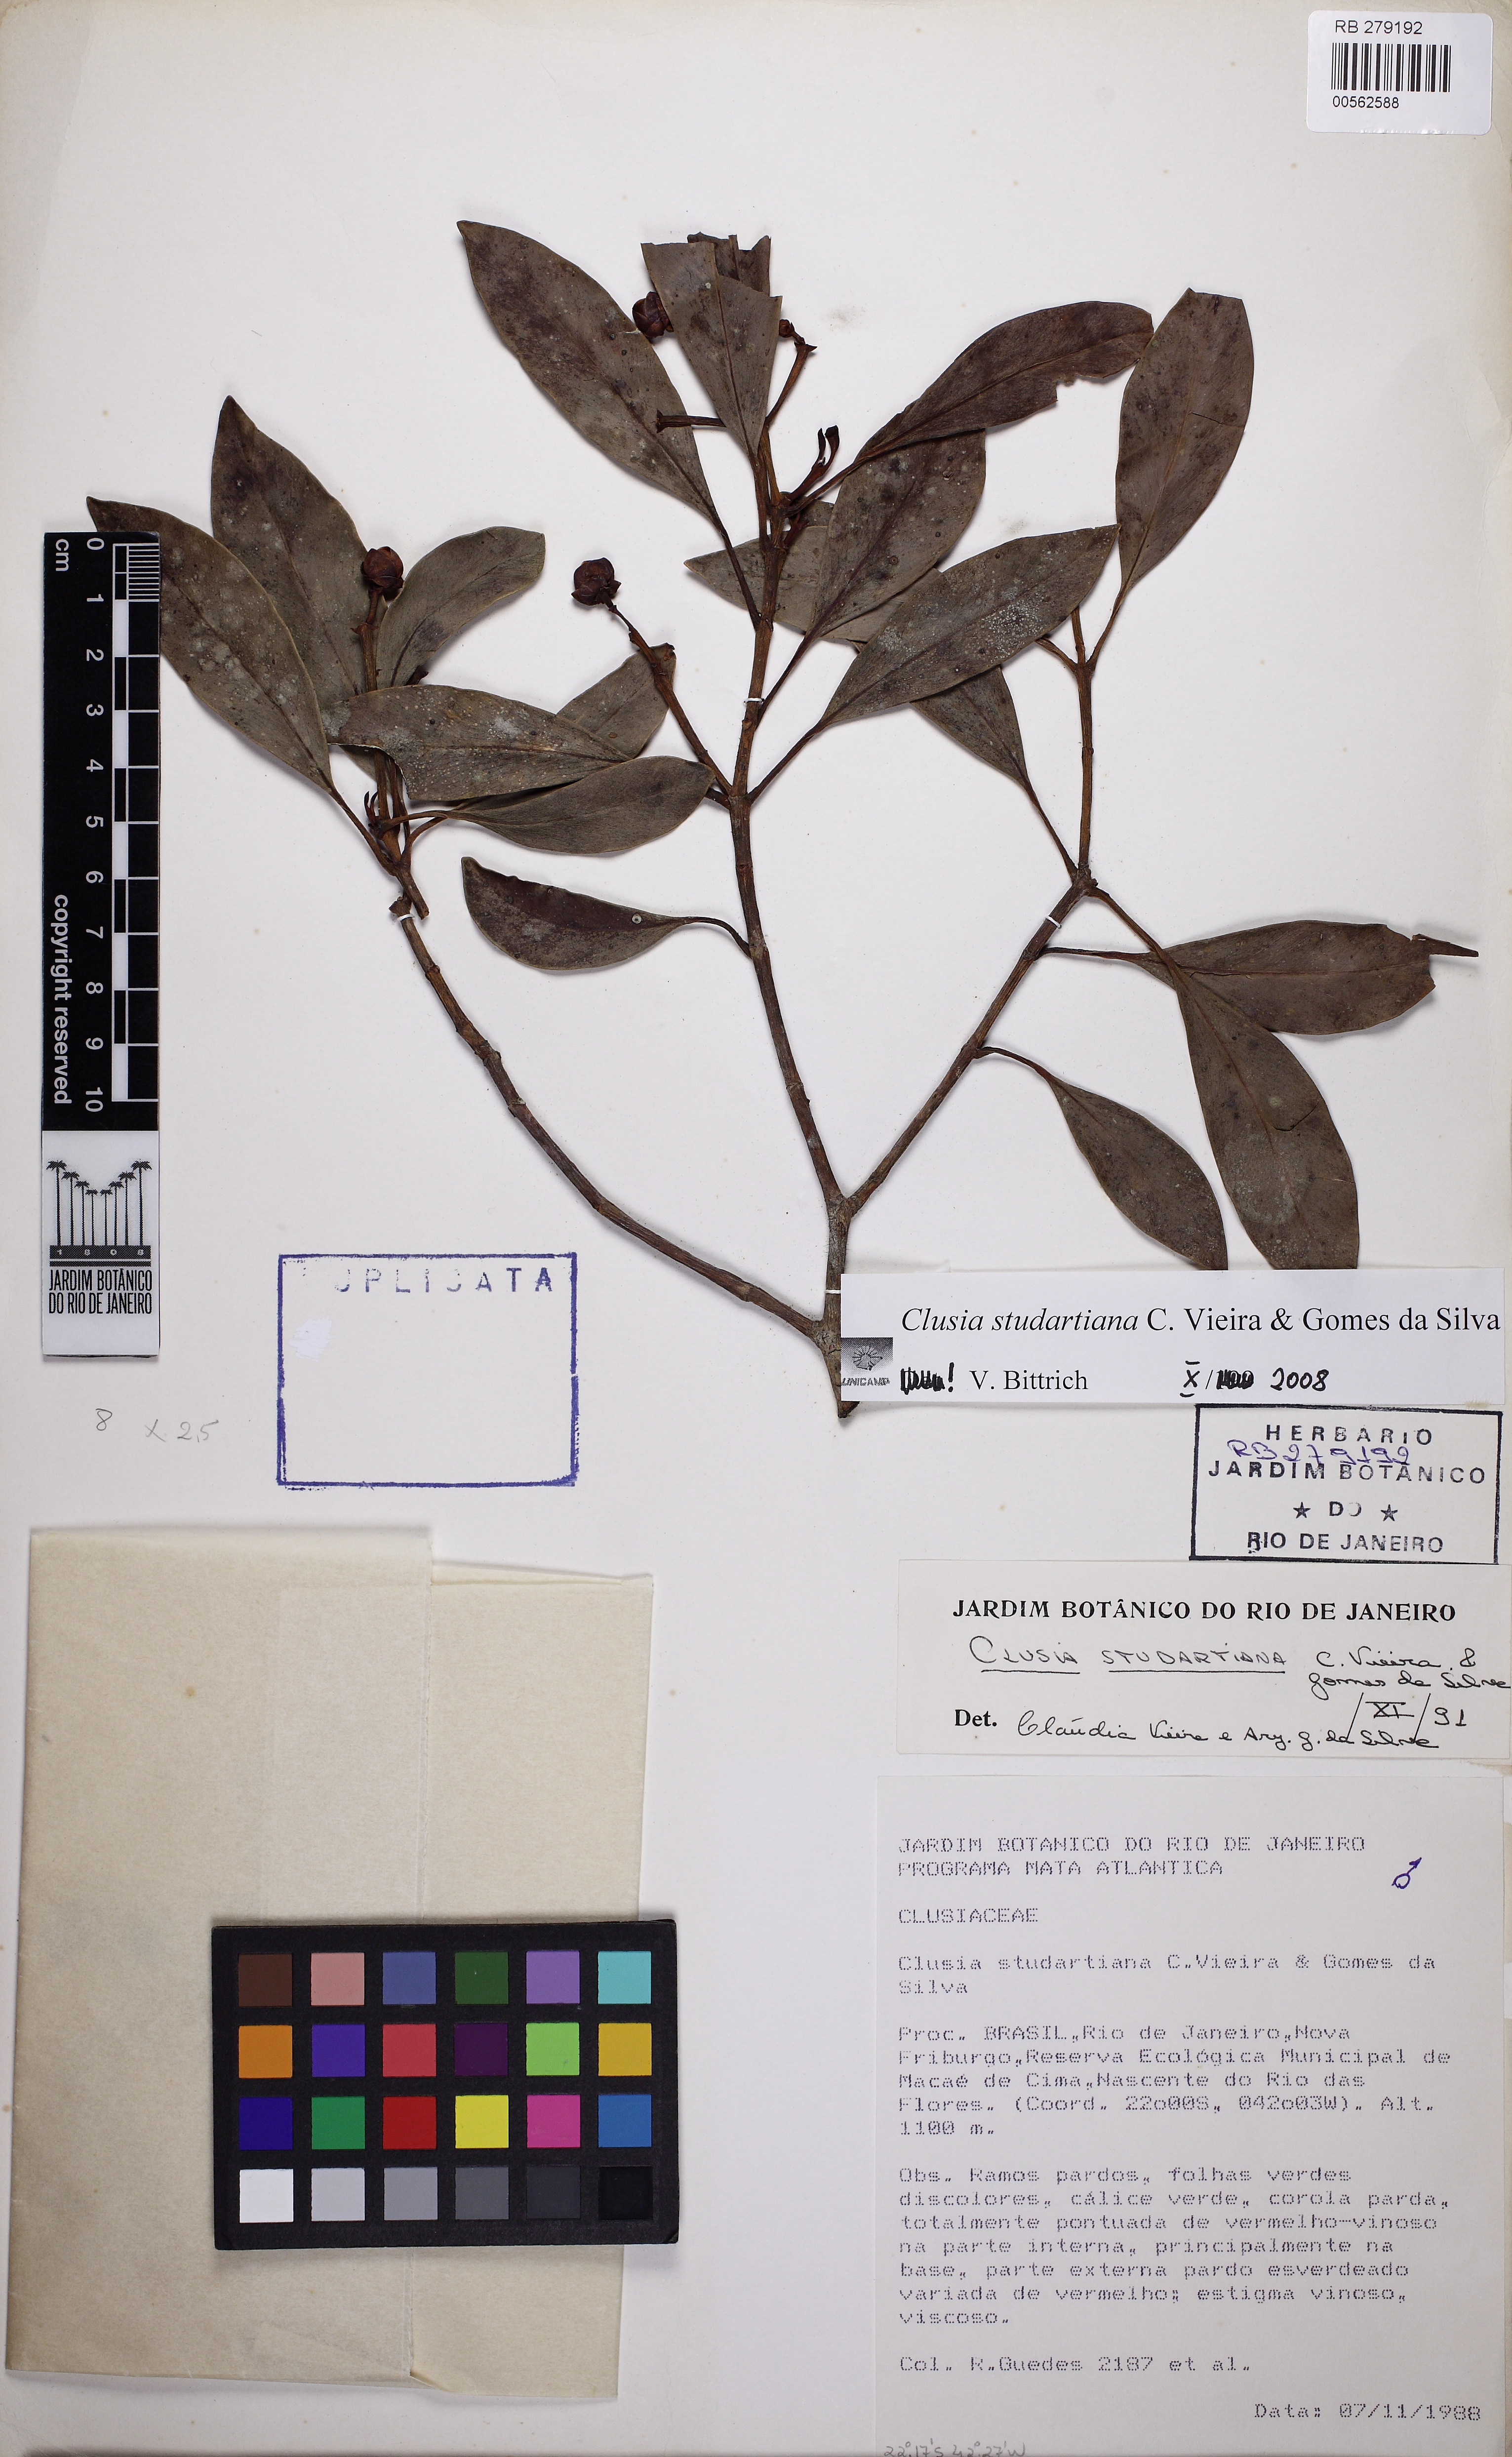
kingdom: Plantae
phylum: Tracheophyta
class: Magnoliopsida
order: Malpighiales
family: Clusiaceae
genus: Clusia
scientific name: Clusia studartiana
